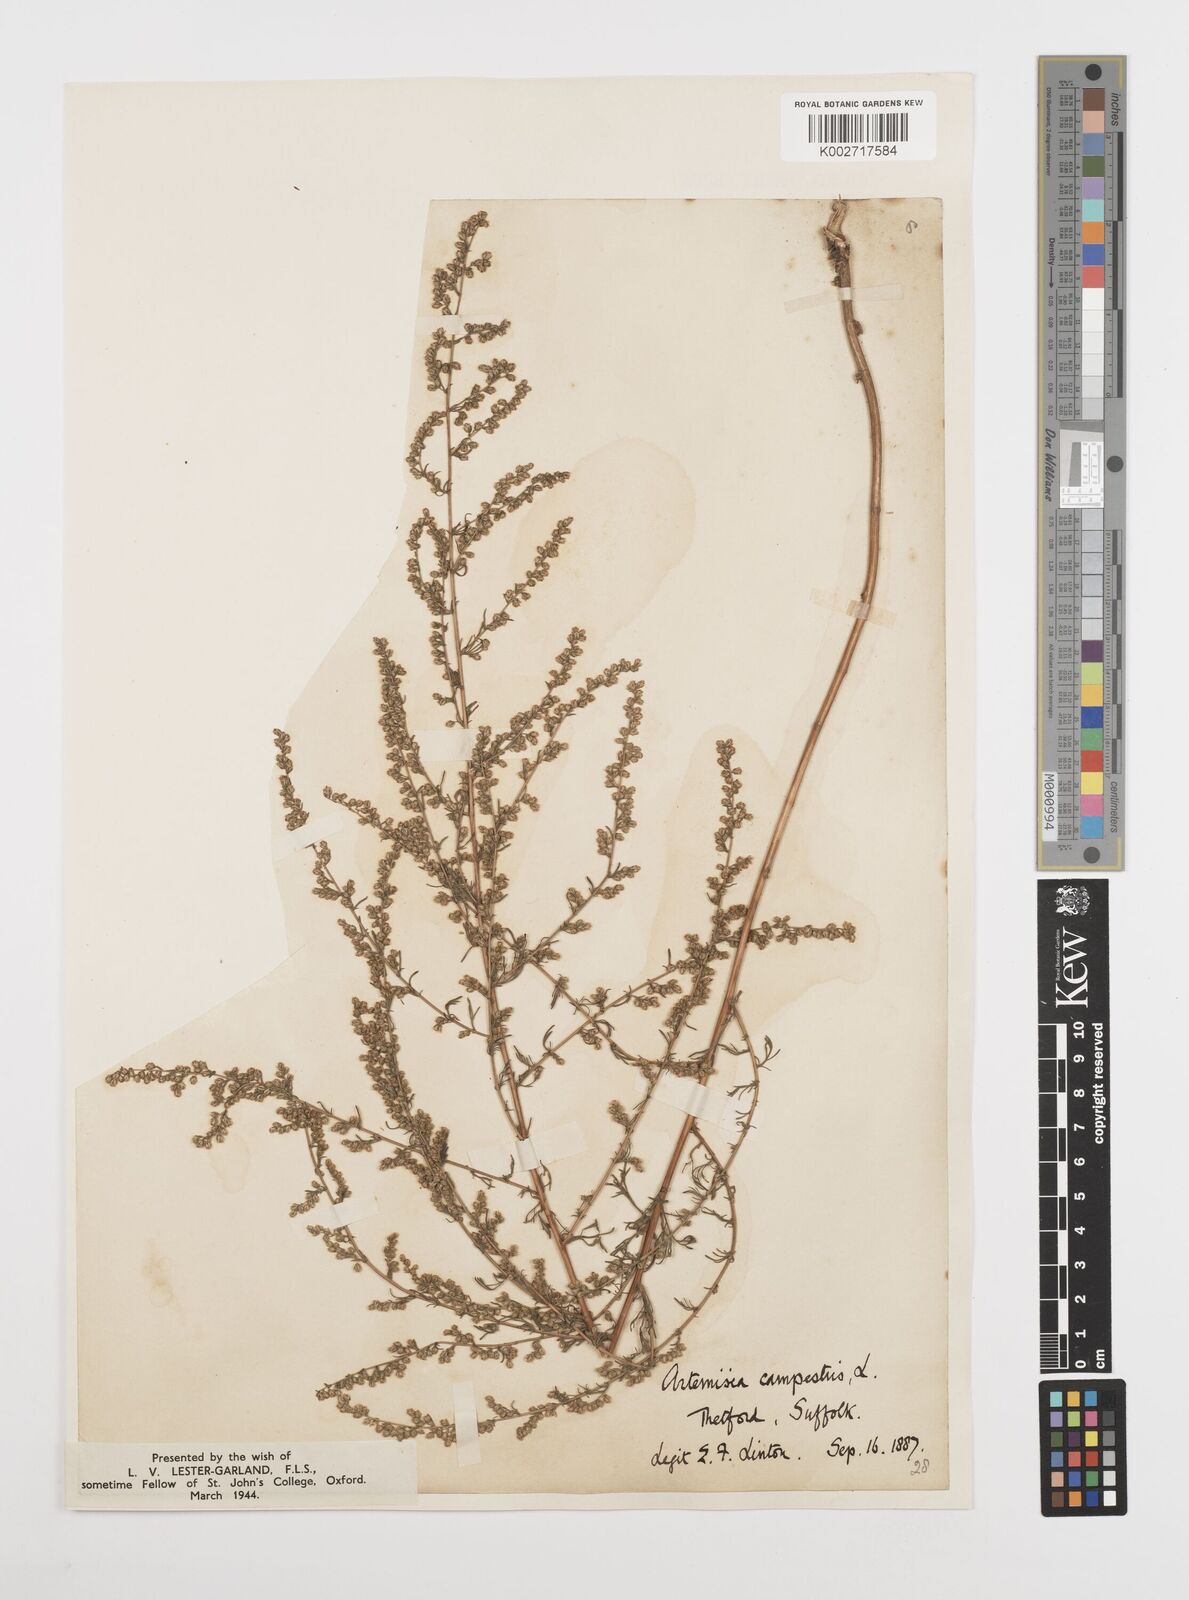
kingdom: Plantae
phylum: Tracheophyta
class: Magnoliopsida
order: Asterales
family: Asteraceae
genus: Artemisia
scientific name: Artemisia campestris
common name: Field wormwood
